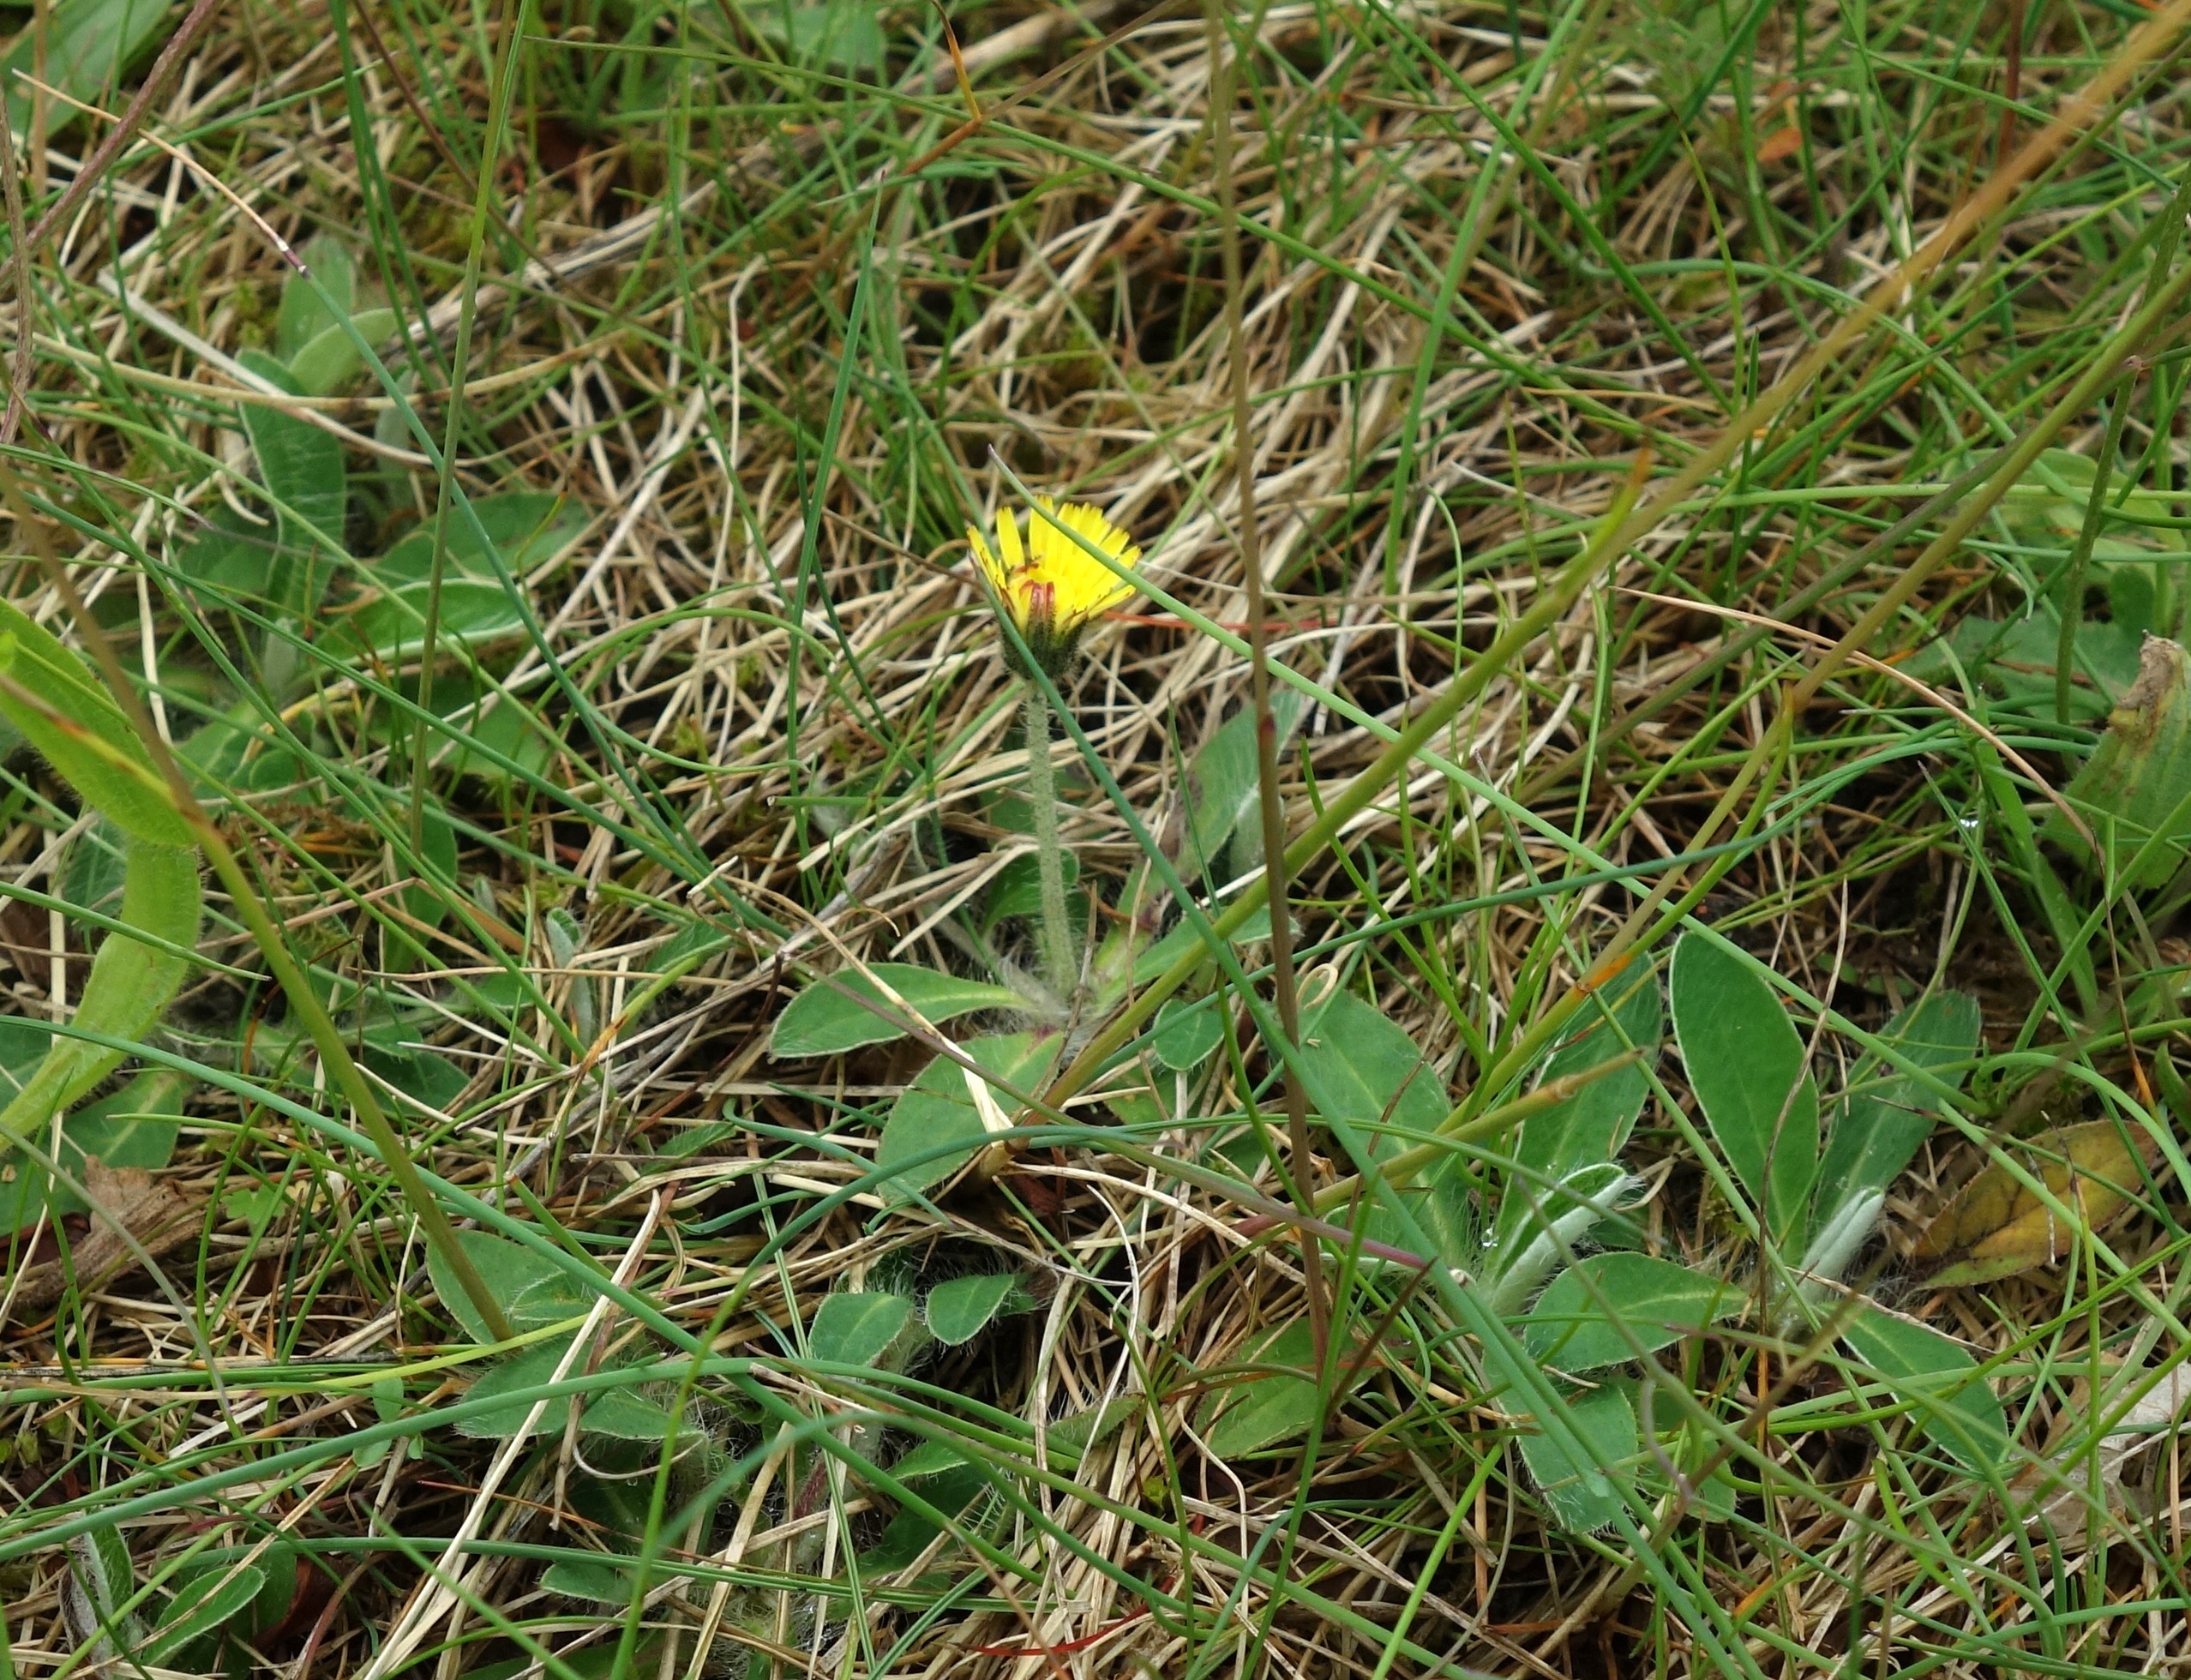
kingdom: Plantae
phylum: Tracheophyta
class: Magnoliopsida
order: Asterales
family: Asteraceae
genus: Pilosella
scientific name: Pilosella officinarum
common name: Håret høgeurt
